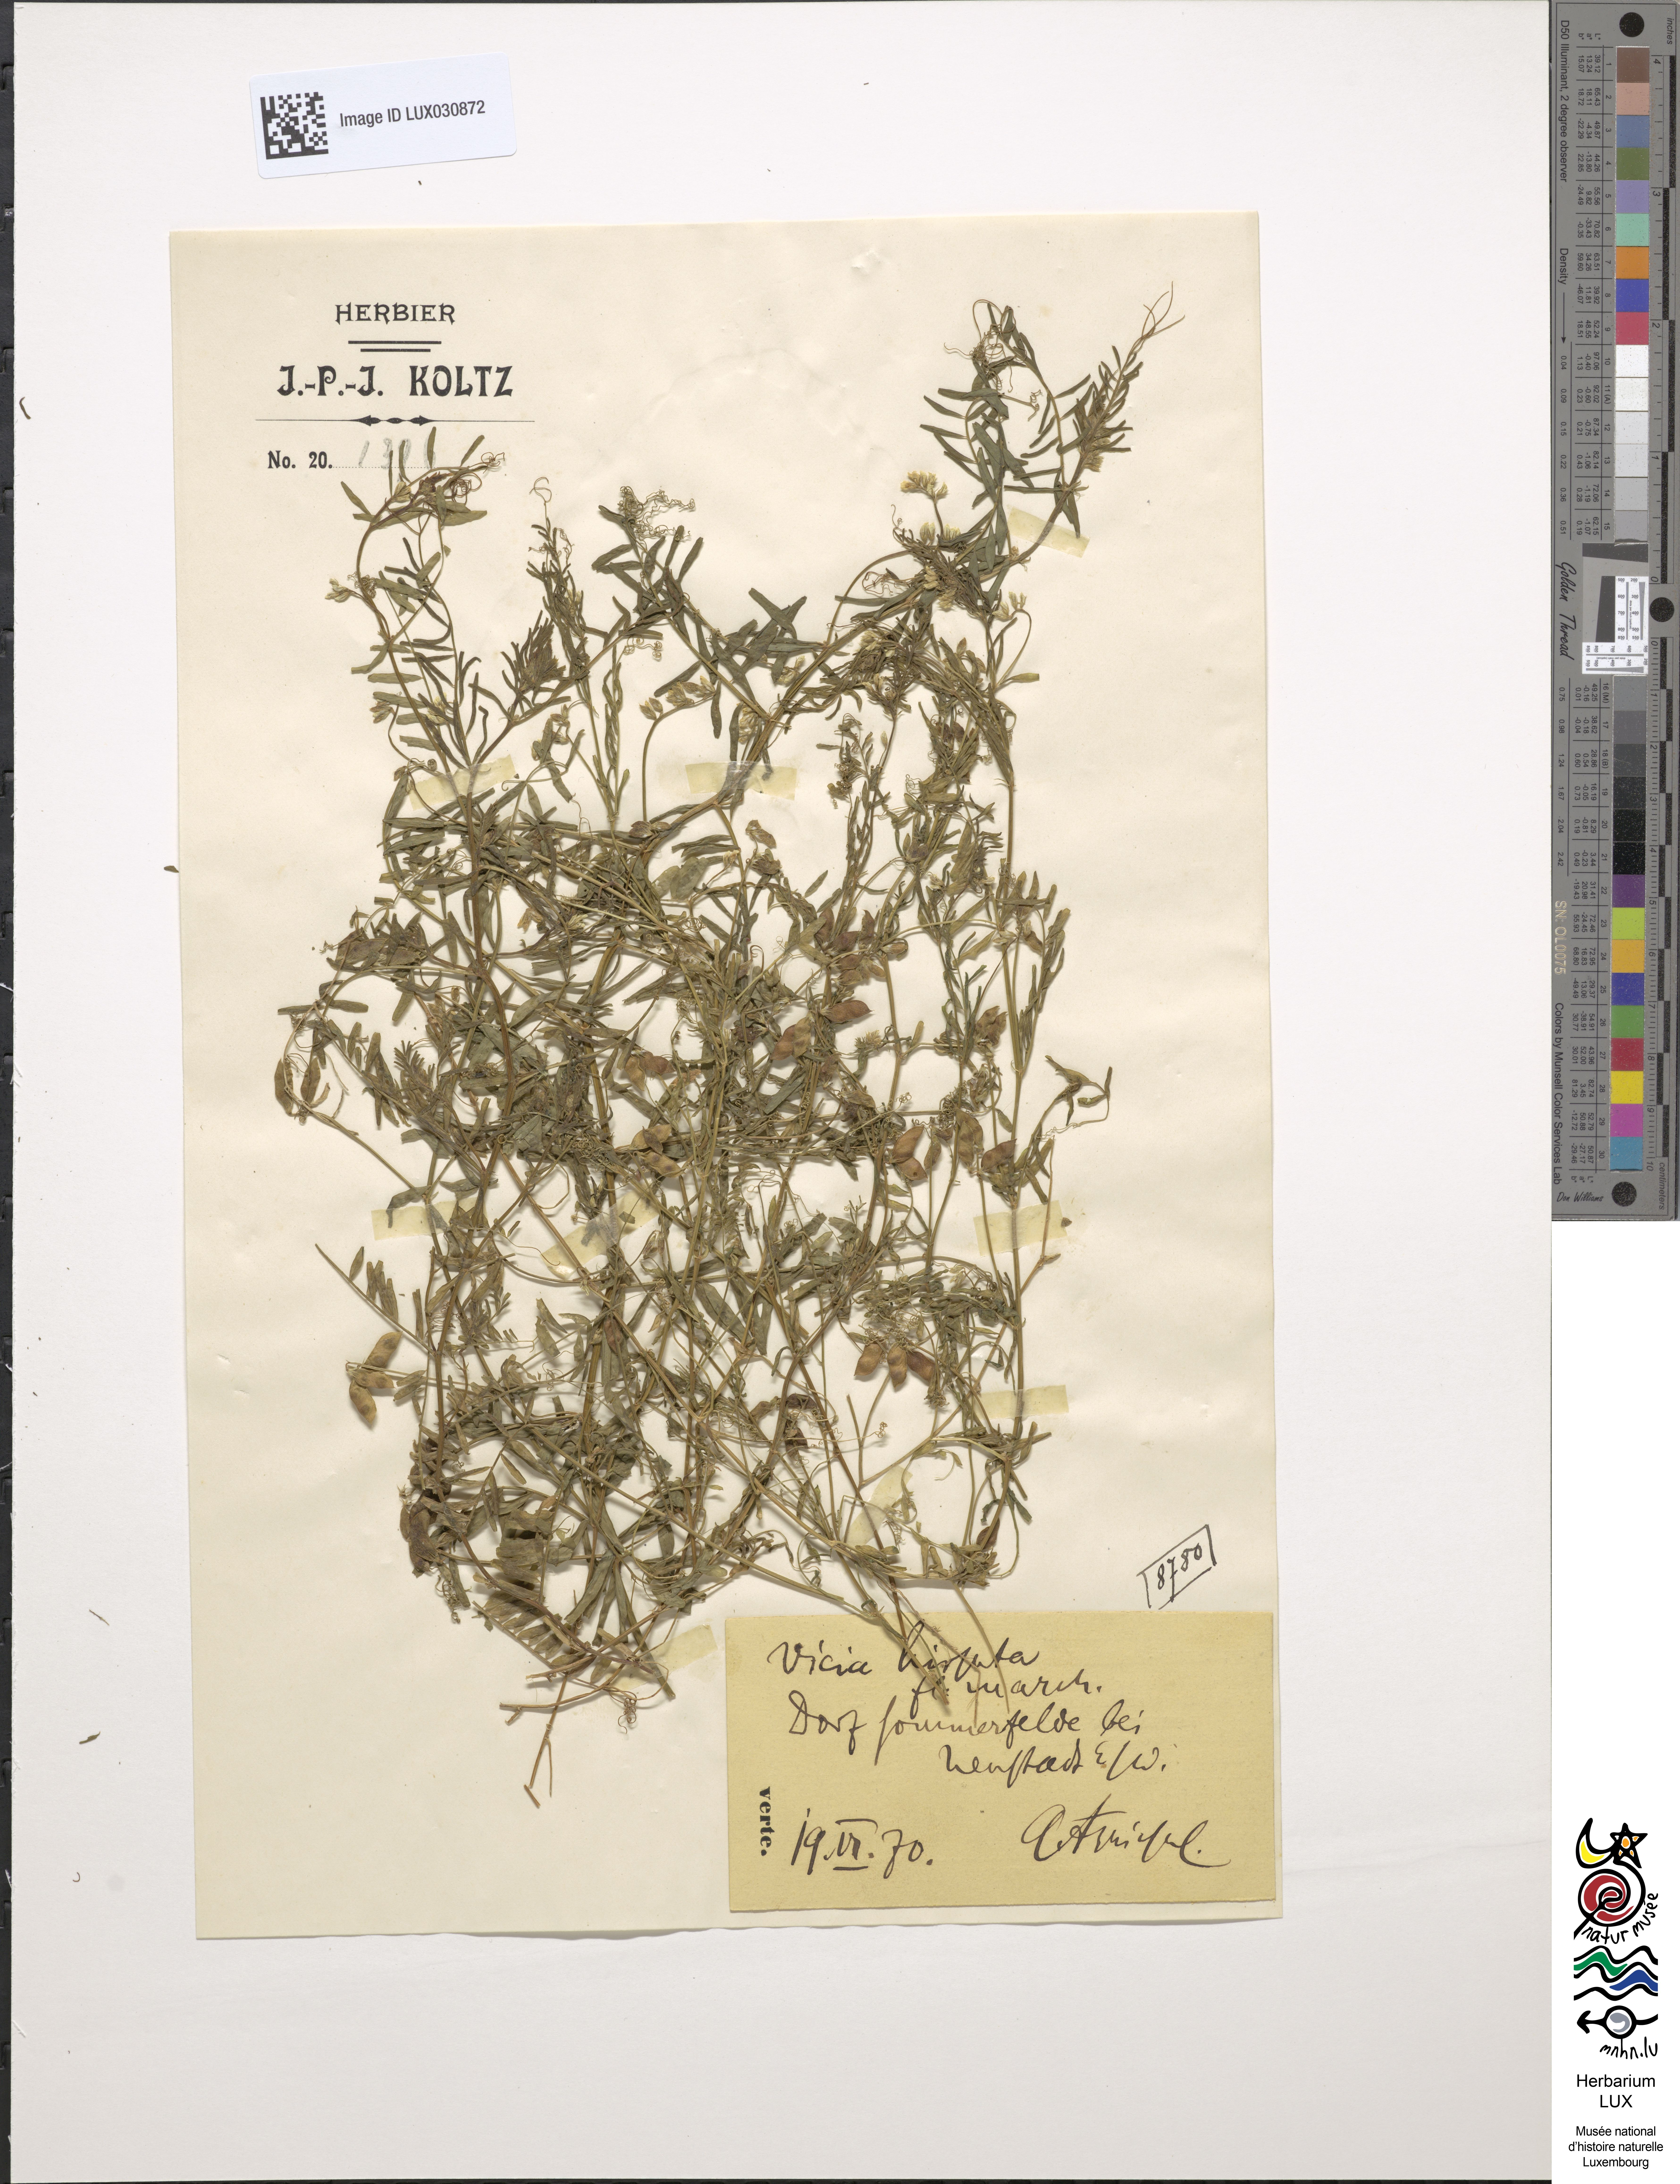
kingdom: Plantae
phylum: Tracheophyta
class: Magnoliopsida
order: Fabales
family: Fabaceae
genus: Vicia
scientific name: Vicia hirsuta
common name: Tiny vetch
